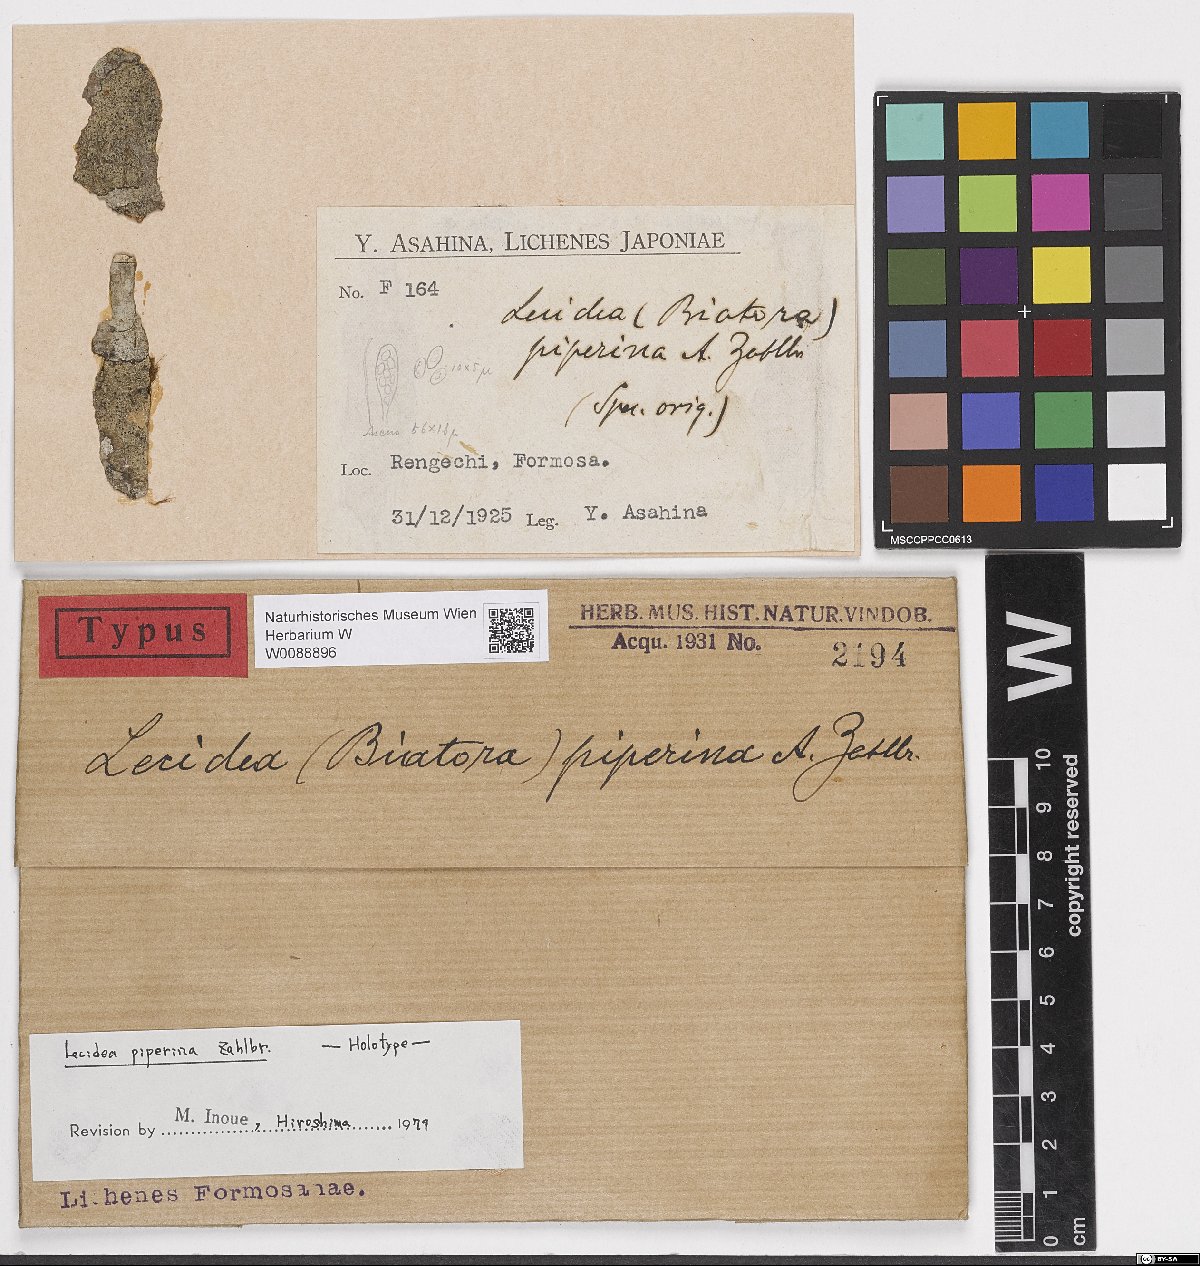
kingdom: Fungi
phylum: Ascomycota
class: Lecanoromycetes
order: Lecanorales
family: Malmideaceae
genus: Malmidea
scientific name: Malmidea piperina
